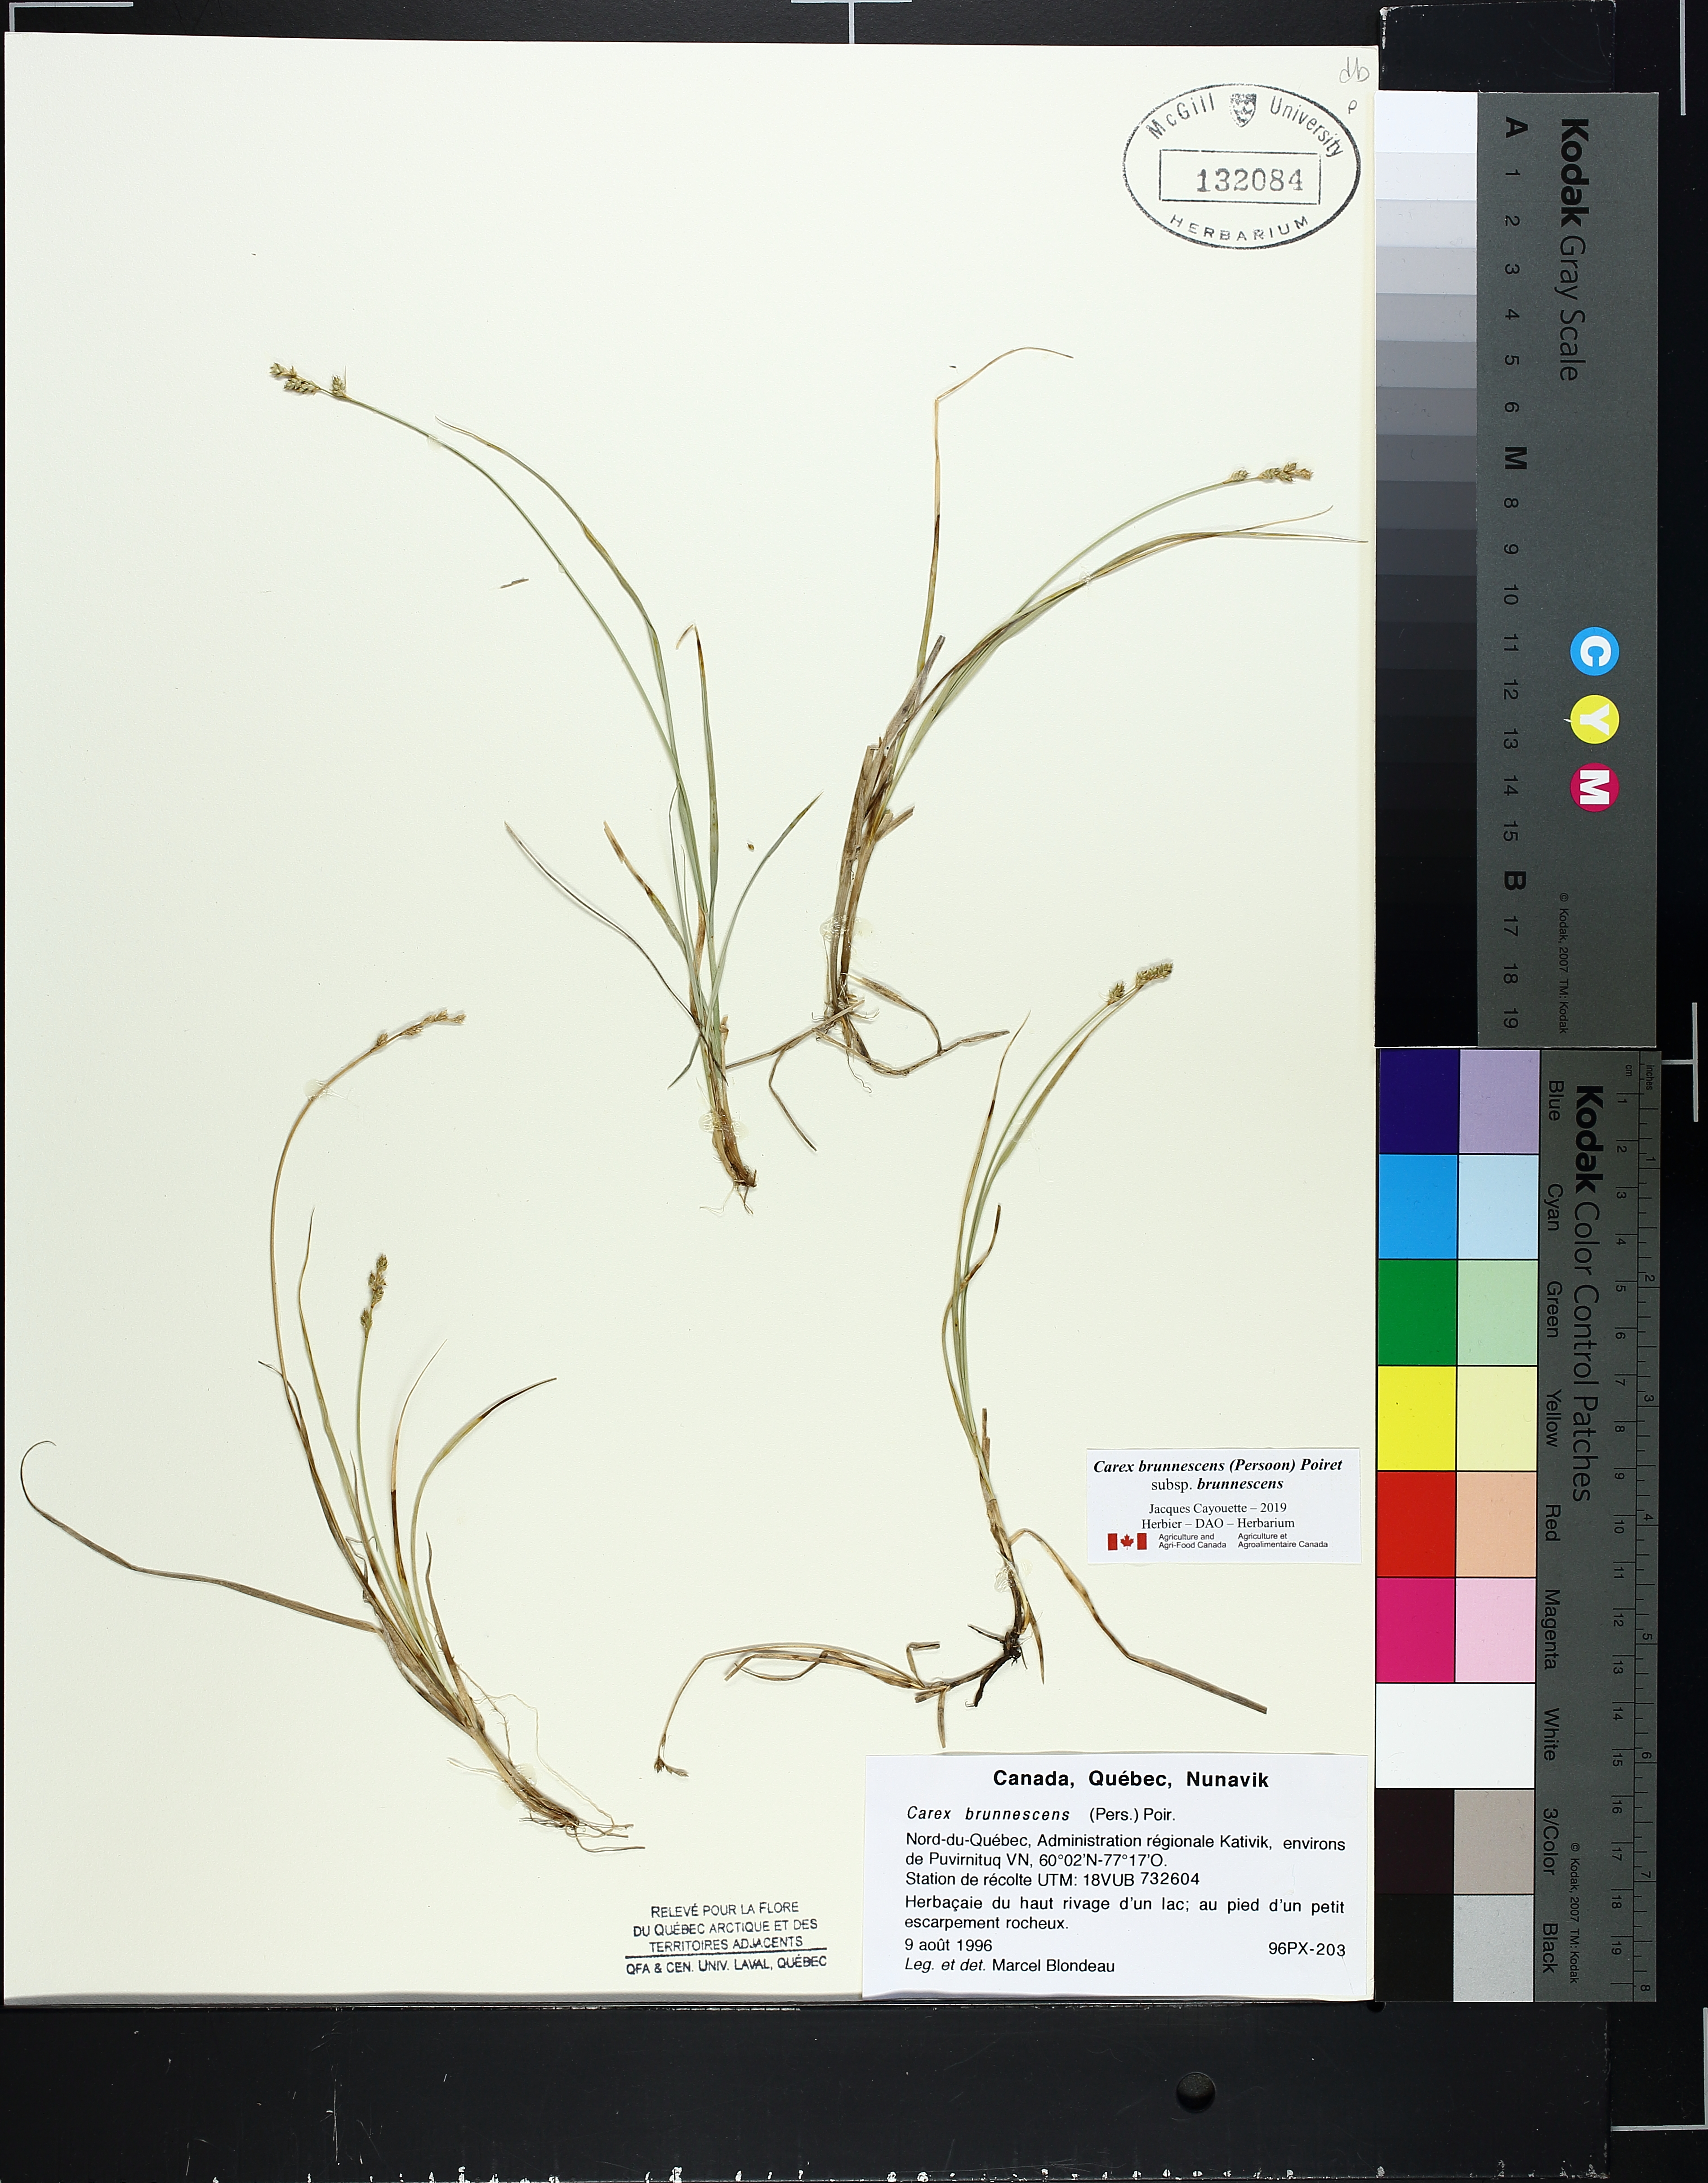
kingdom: Plantae
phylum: Tracheophyta
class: Liliopsida
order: Poales
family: Cyperaceae
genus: Carex
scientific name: Carex brunnescens
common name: Brown sedge
